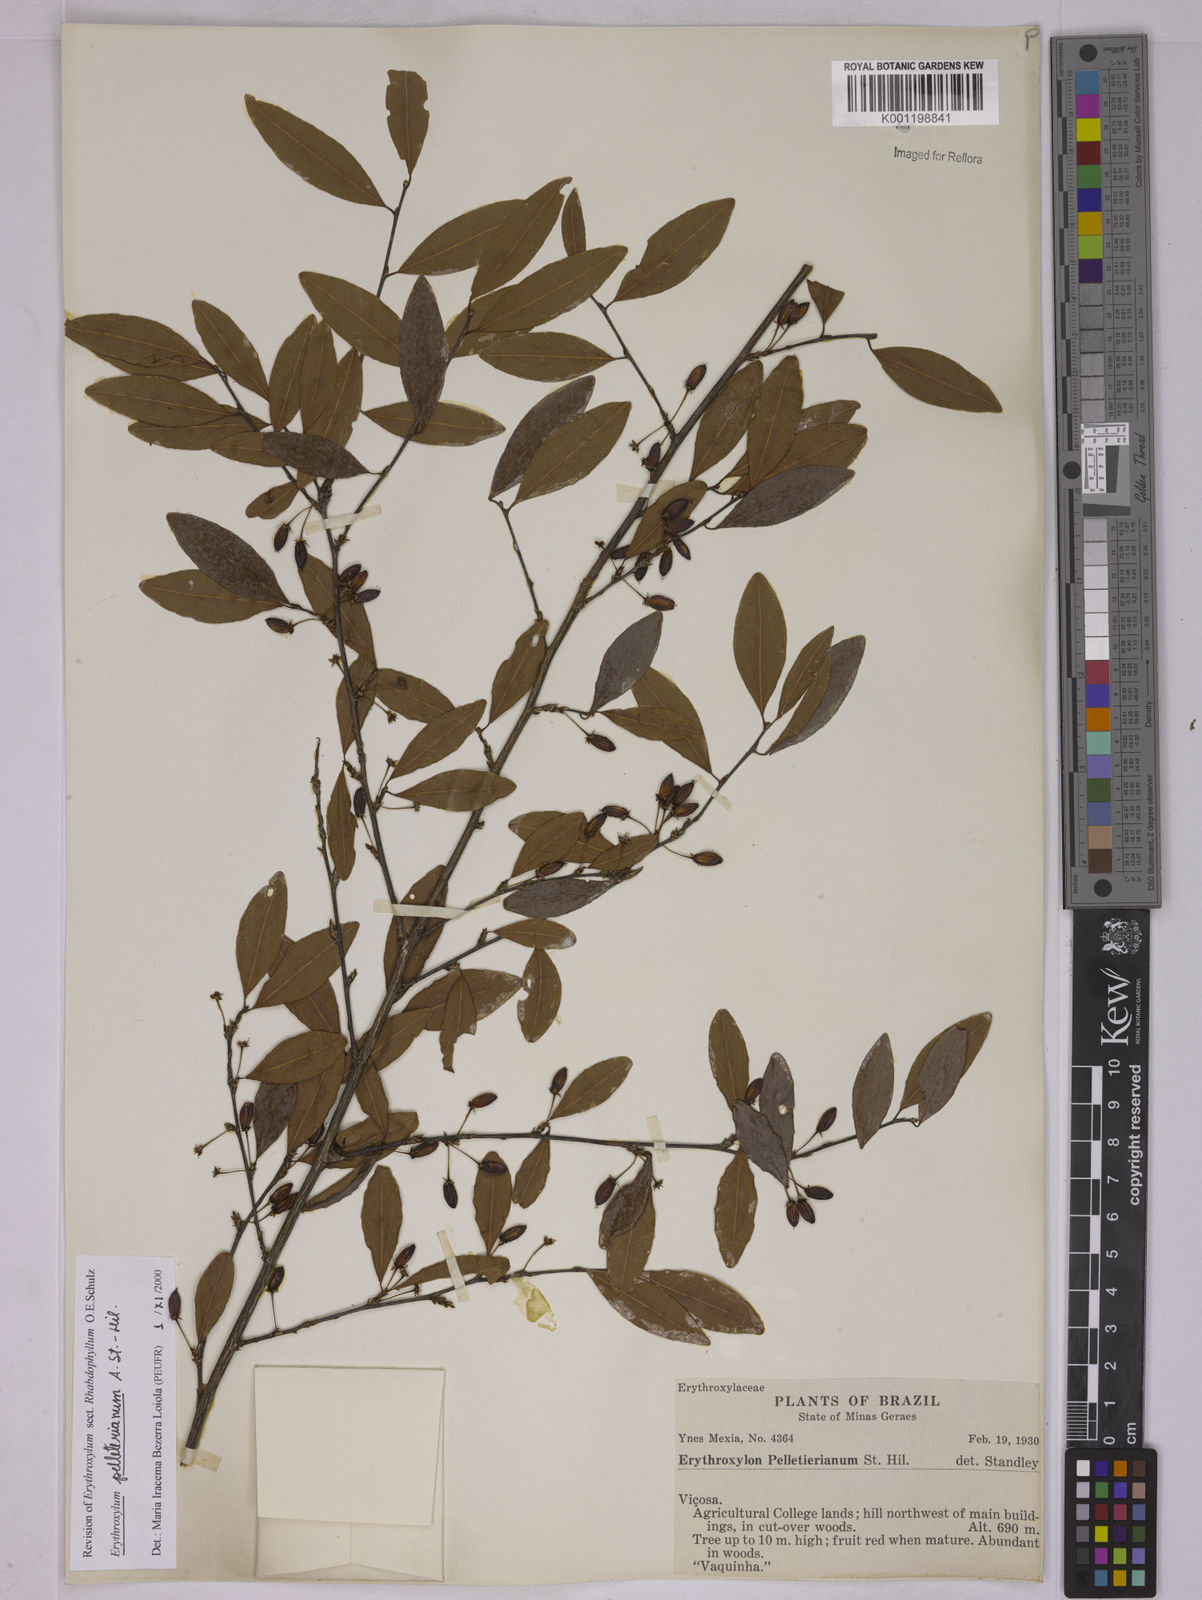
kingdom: Plantae
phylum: Tracheophyta
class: Magnoliopsida
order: Malpighiales
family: Erythroxylaceae
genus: Erythroxylum
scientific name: Erythroxylum pelleterianum
